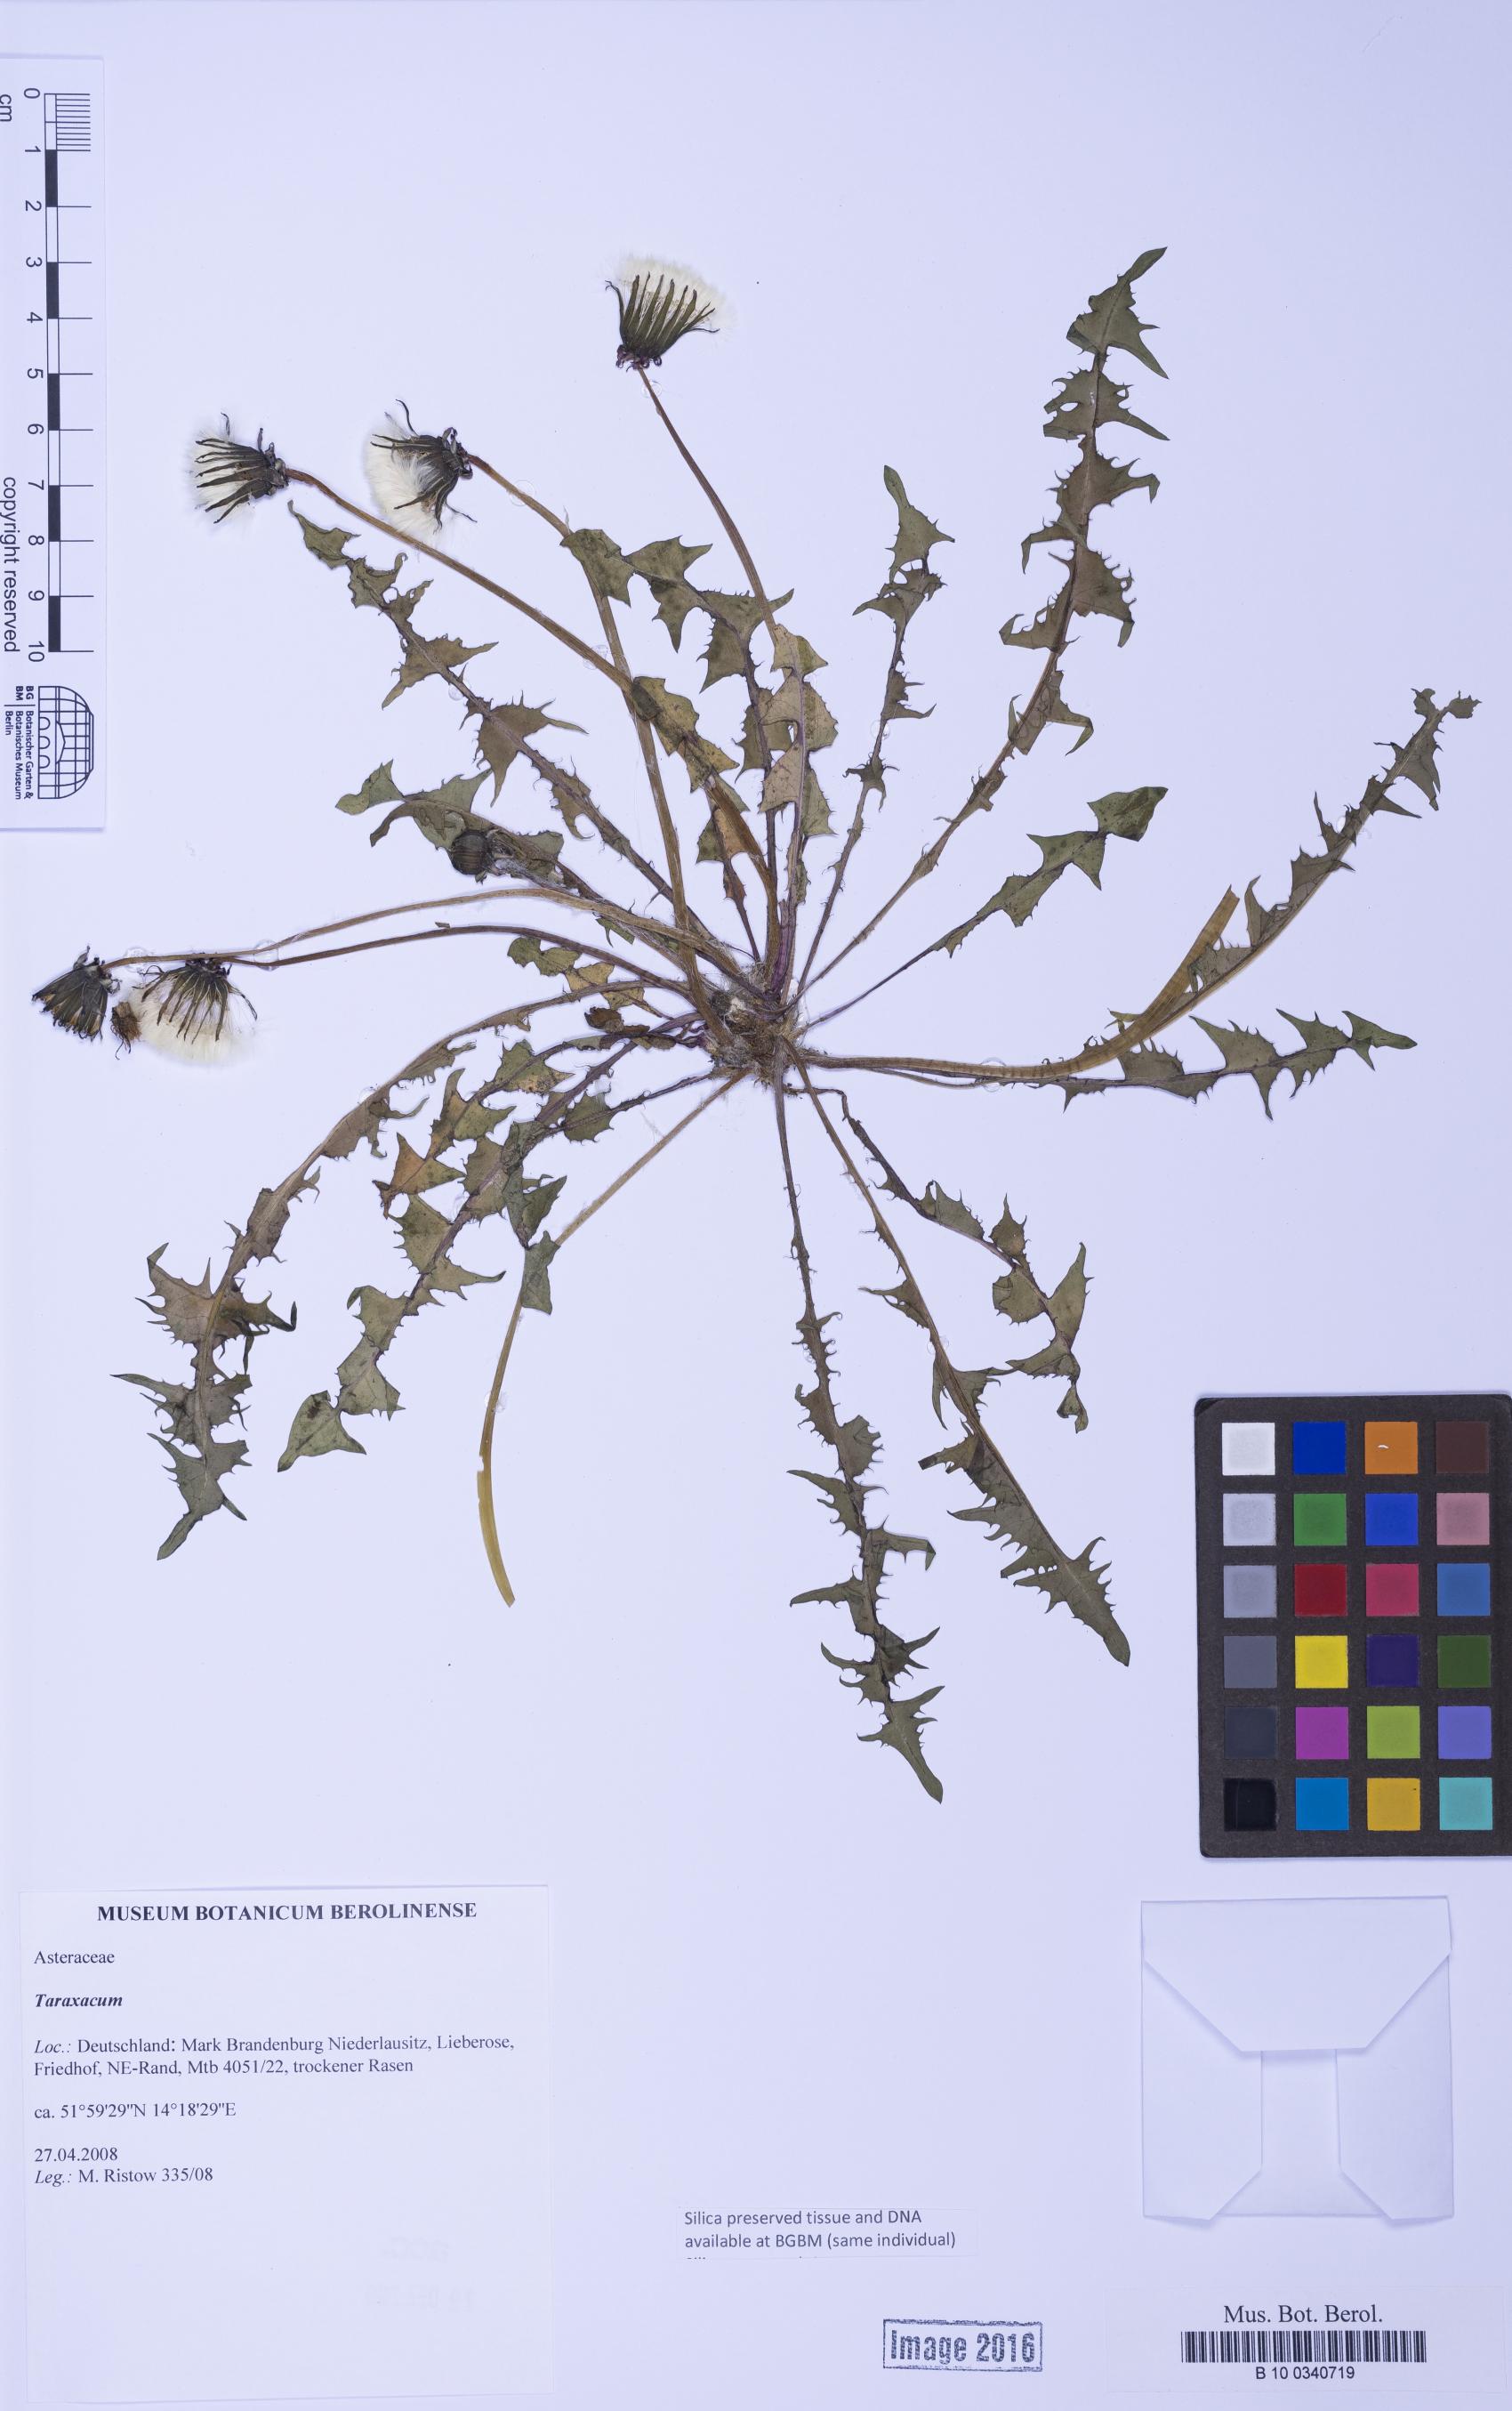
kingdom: Plantae
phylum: Tracheophyta
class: Magnoliopsida
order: Asterales
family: Asteraceae
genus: Taraxacum
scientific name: Taraxacum
